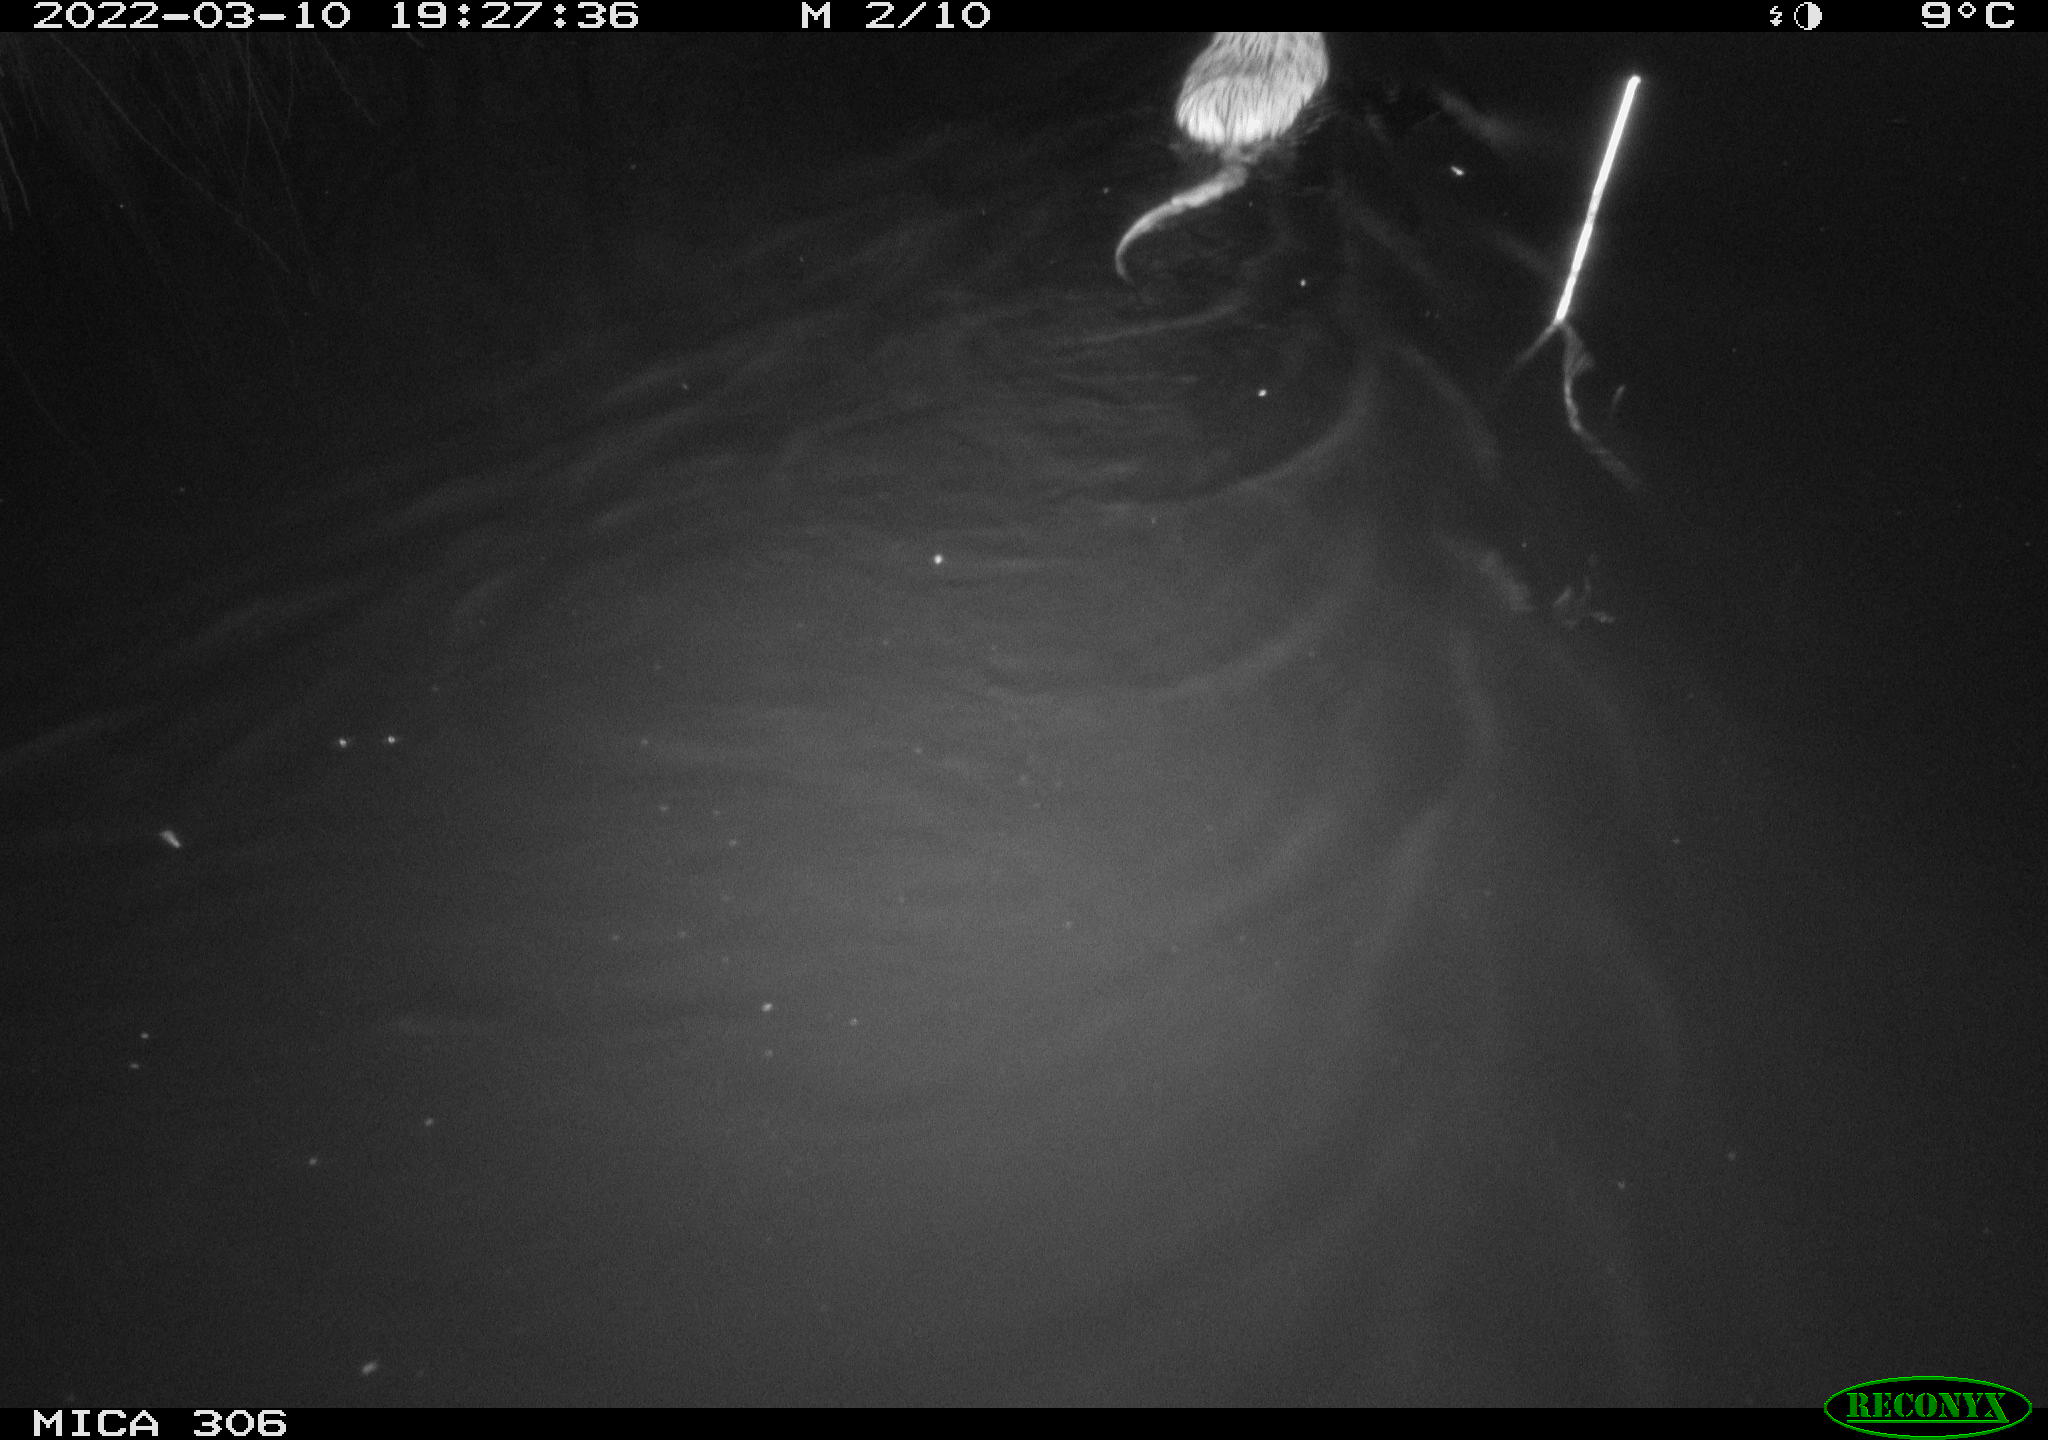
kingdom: Animalia
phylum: Chordata
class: Mammalia
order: Rodentia
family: Cricetidae
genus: Ondatra
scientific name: Ondatra zibethicus
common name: Muskrat
